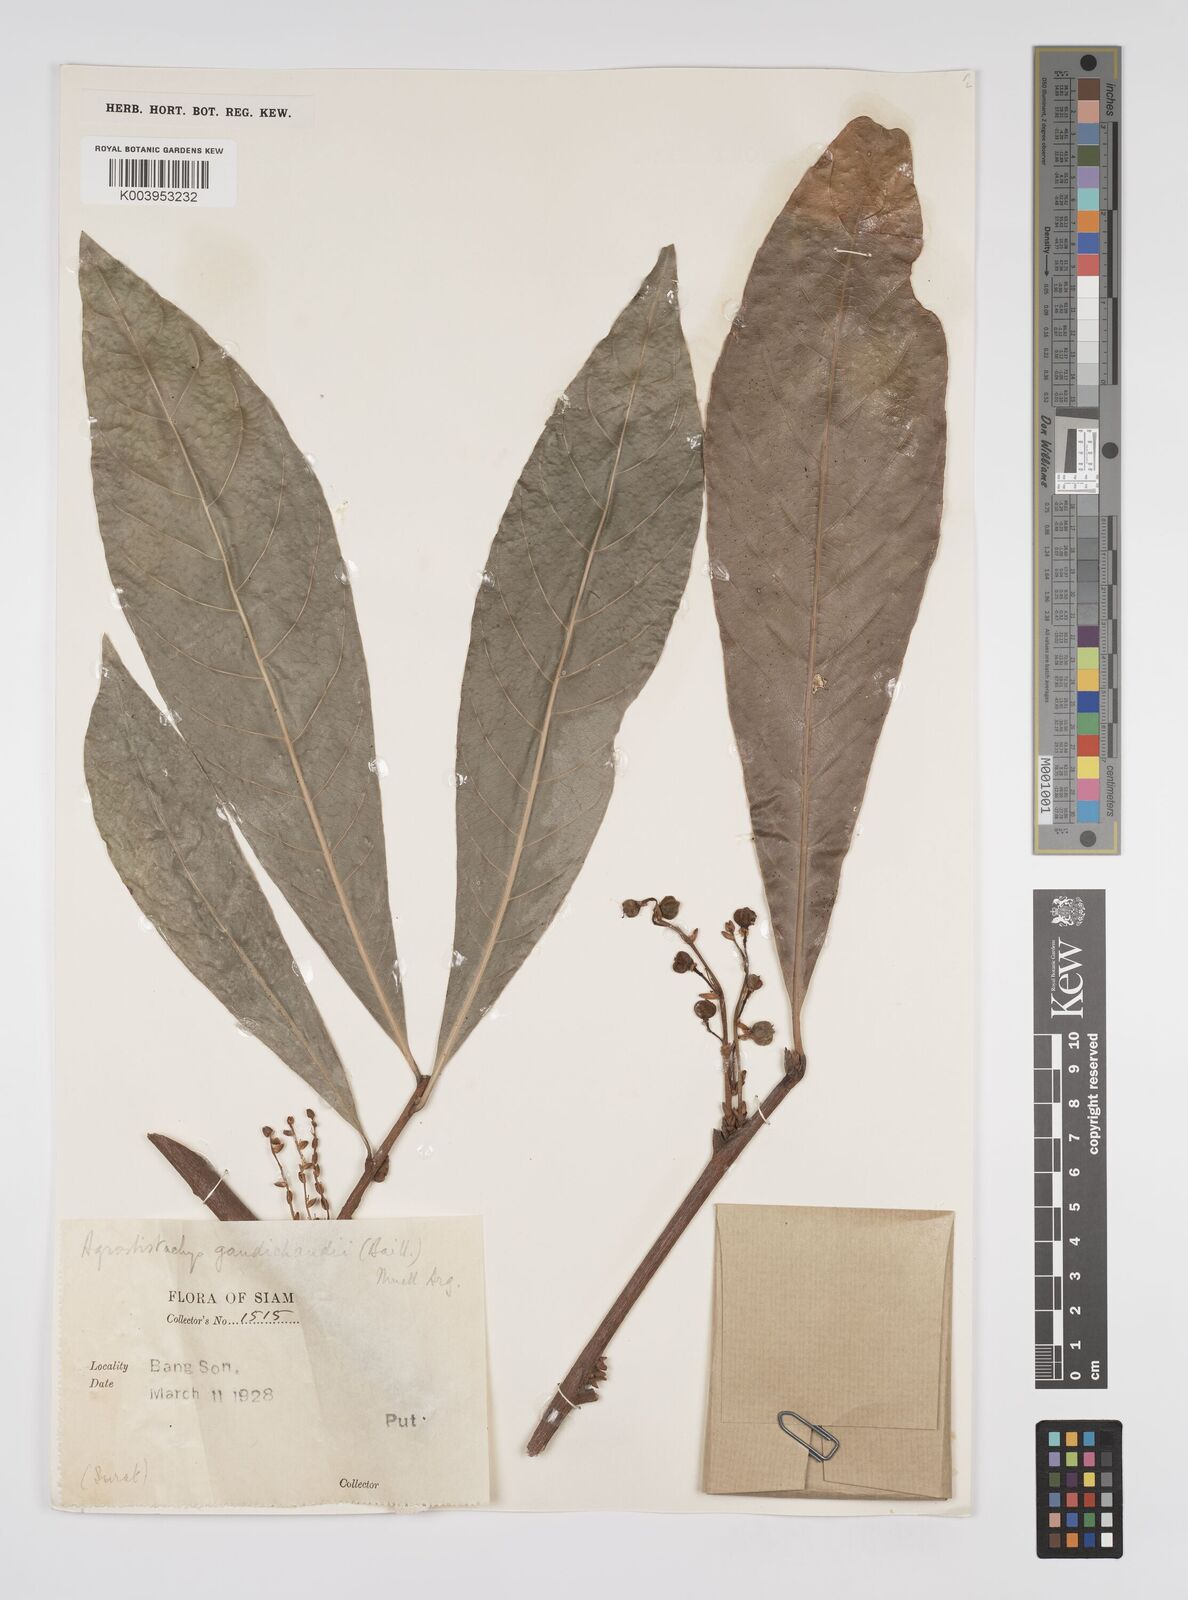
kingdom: Plantae
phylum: Tracheophyta
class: Magnoliopsida
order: Malpighiales
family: Euphorbiaceae
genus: Agrostistachys
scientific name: Agrostistachys gaudichaudii
